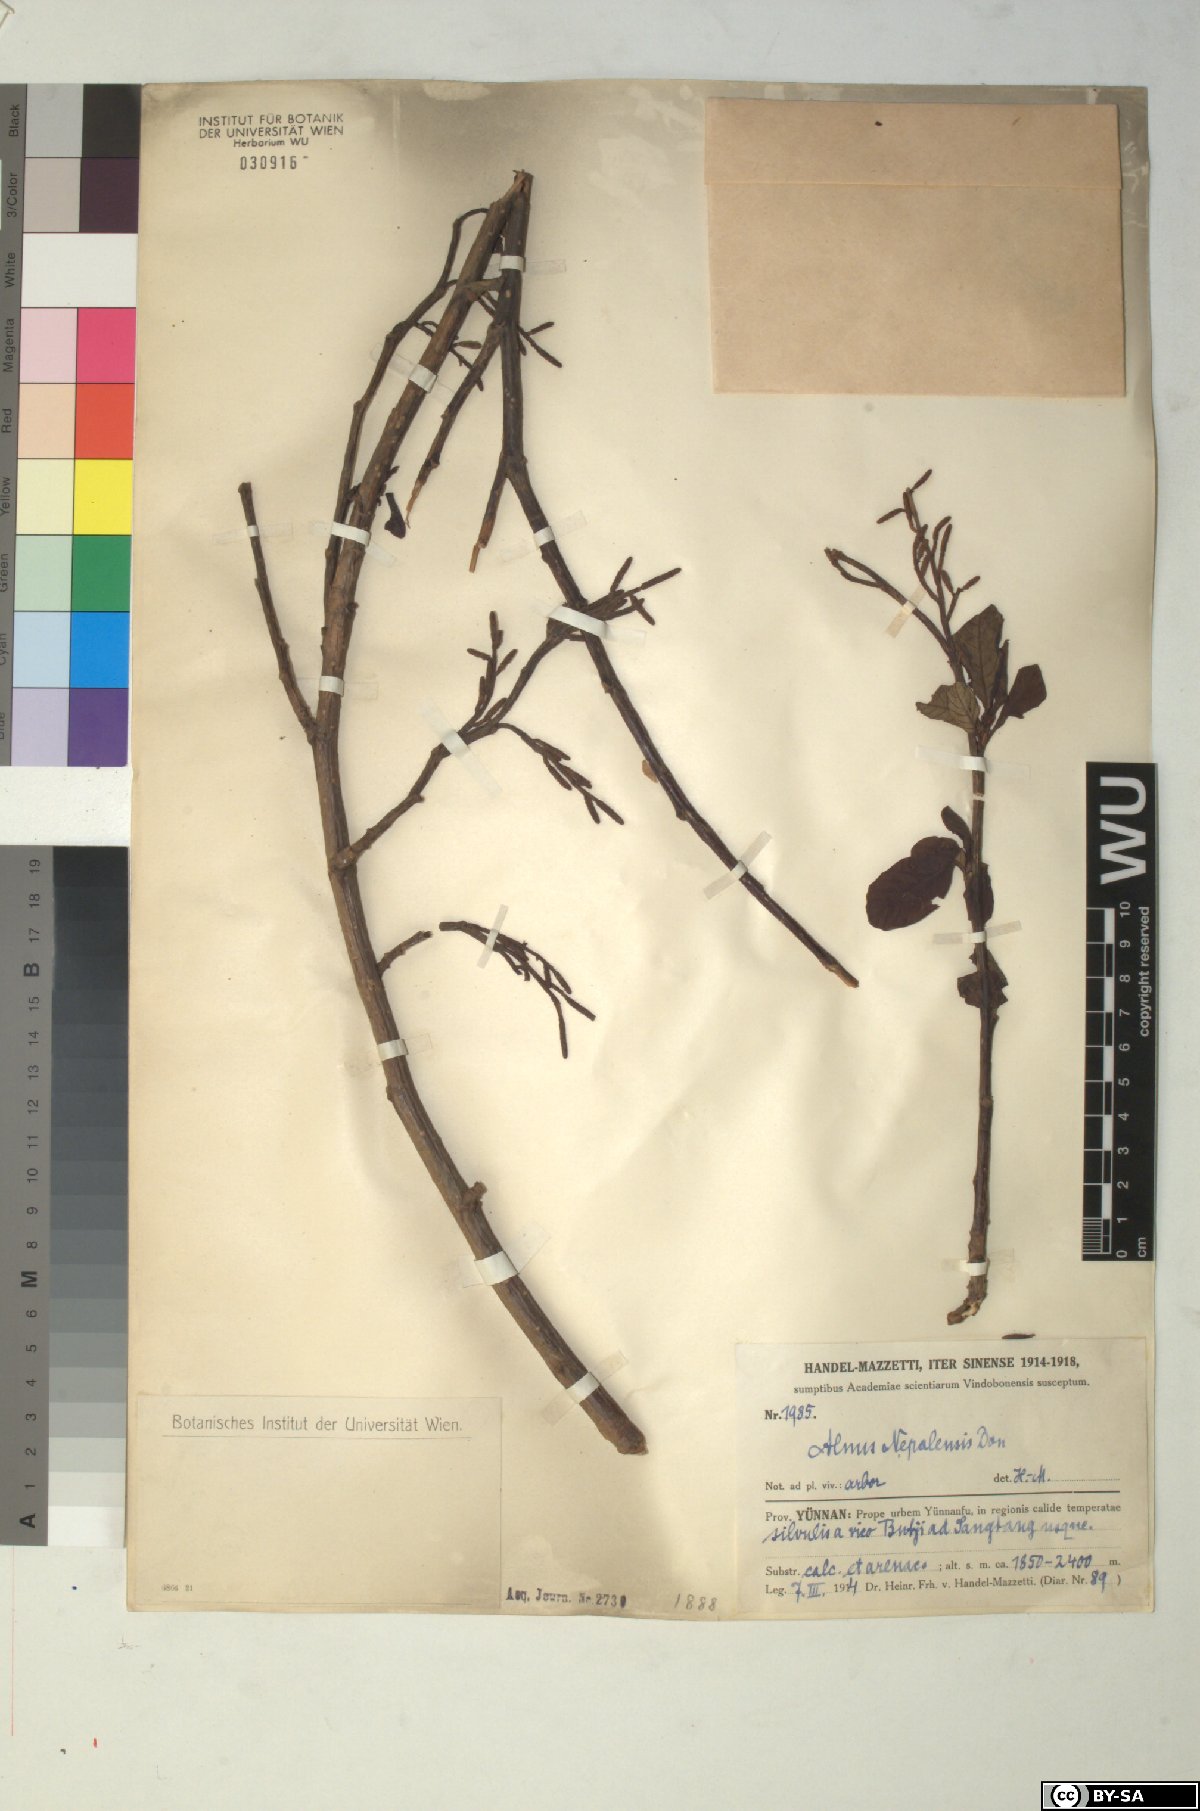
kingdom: Plantae
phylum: Tracheophyta
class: Magnoliopsida
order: Fagales
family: Betulaceae
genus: Alnus
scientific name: Alnus nepalensis
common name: Nepal alder
